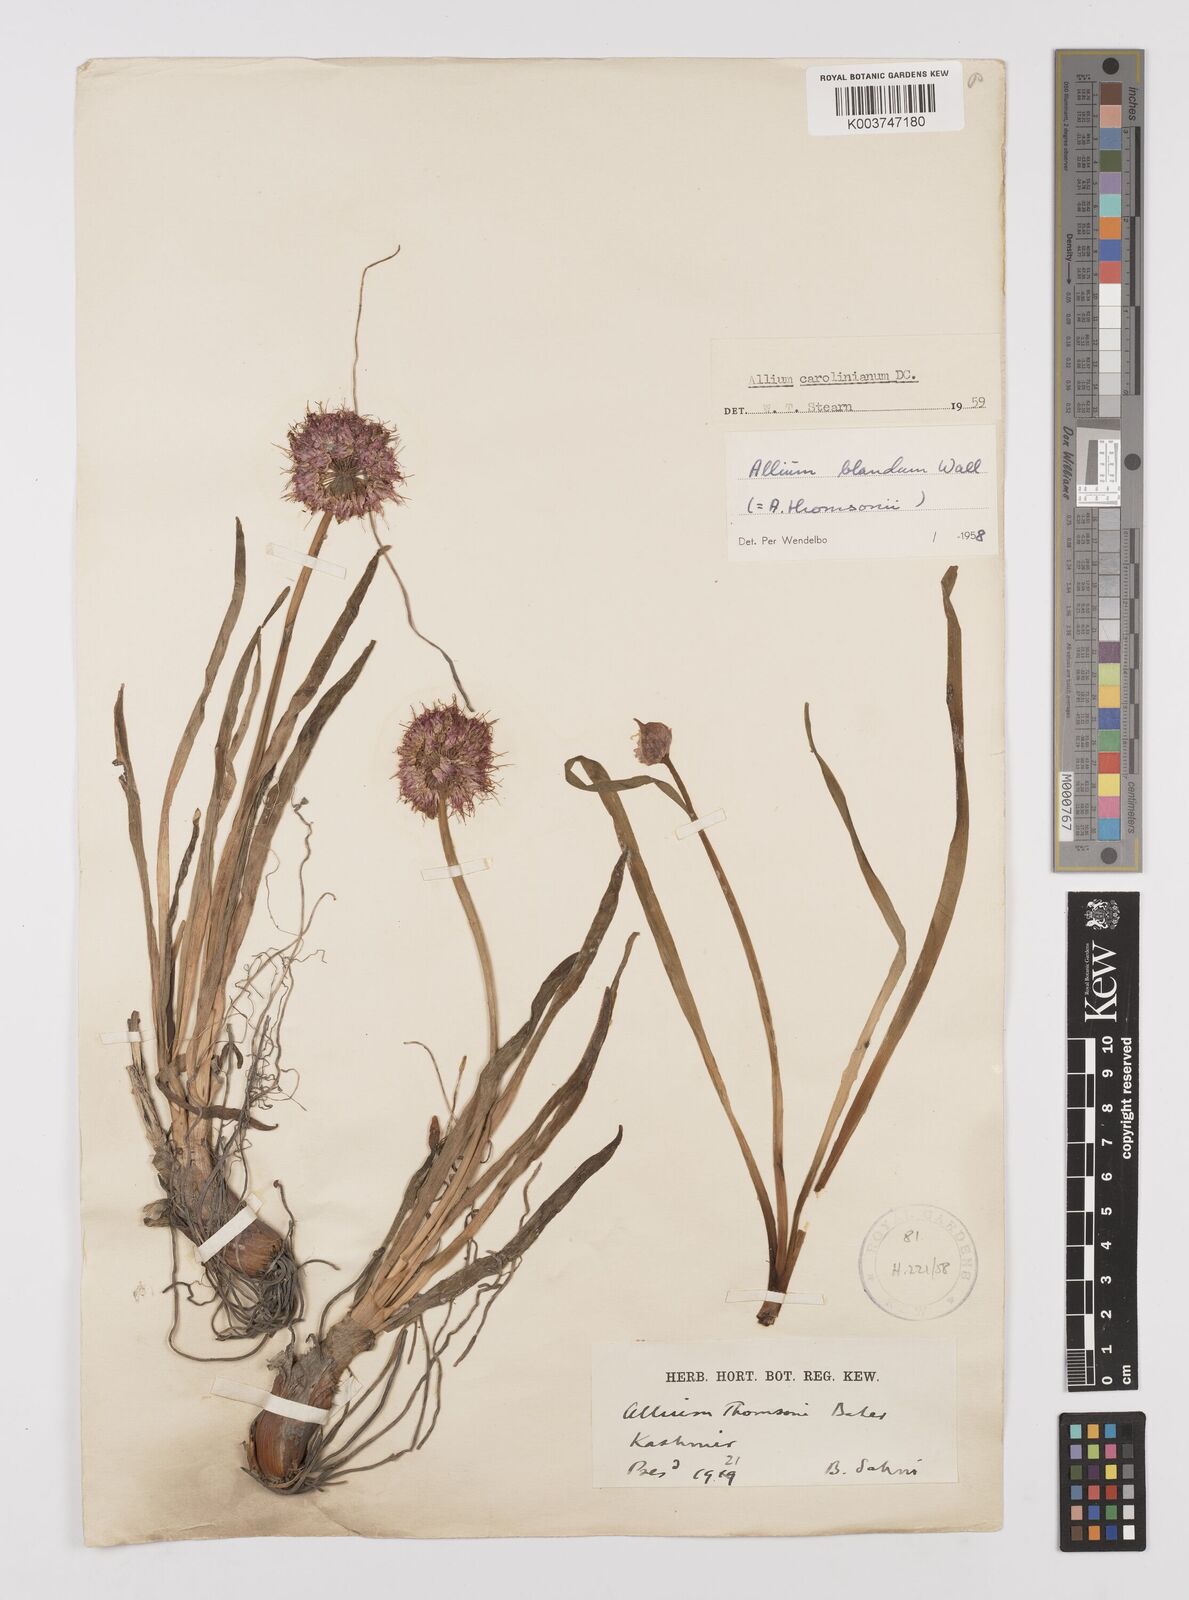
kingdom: Plantae
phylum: Tracheophyta
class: Liliopsida
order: Asparagales
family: Amaryllidaceae
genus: Allium
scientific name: Allium carolinianum
